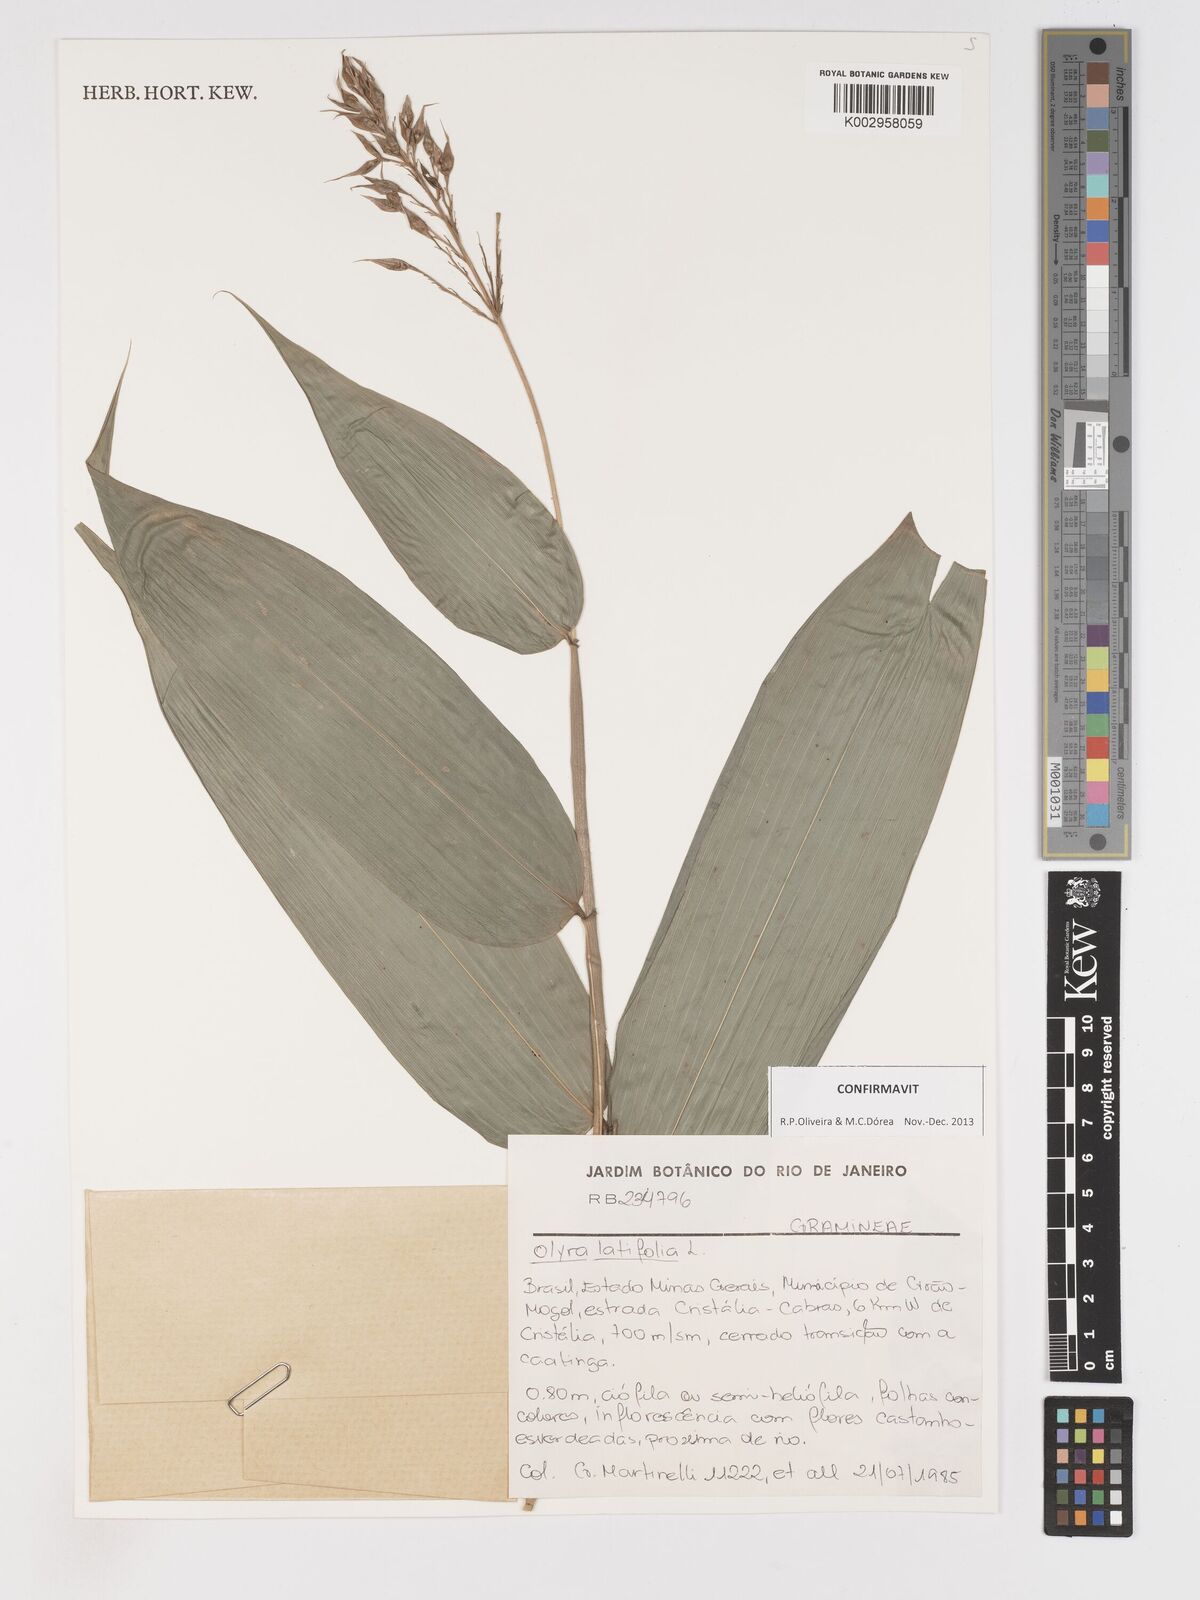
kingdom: Plantae
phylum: Tracheophyta
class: Liliopsida
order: Poales
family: Poaceae
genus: Olyra
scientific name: Olyra latifolia
